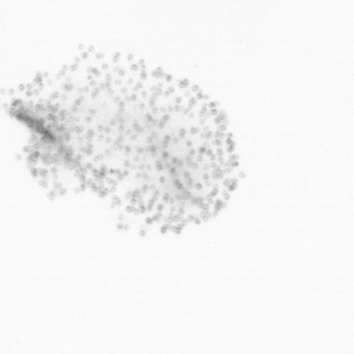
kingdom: Chromista
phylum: Ochrophyta
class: Bacillariophyceae
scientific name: Bacillariophyceae
